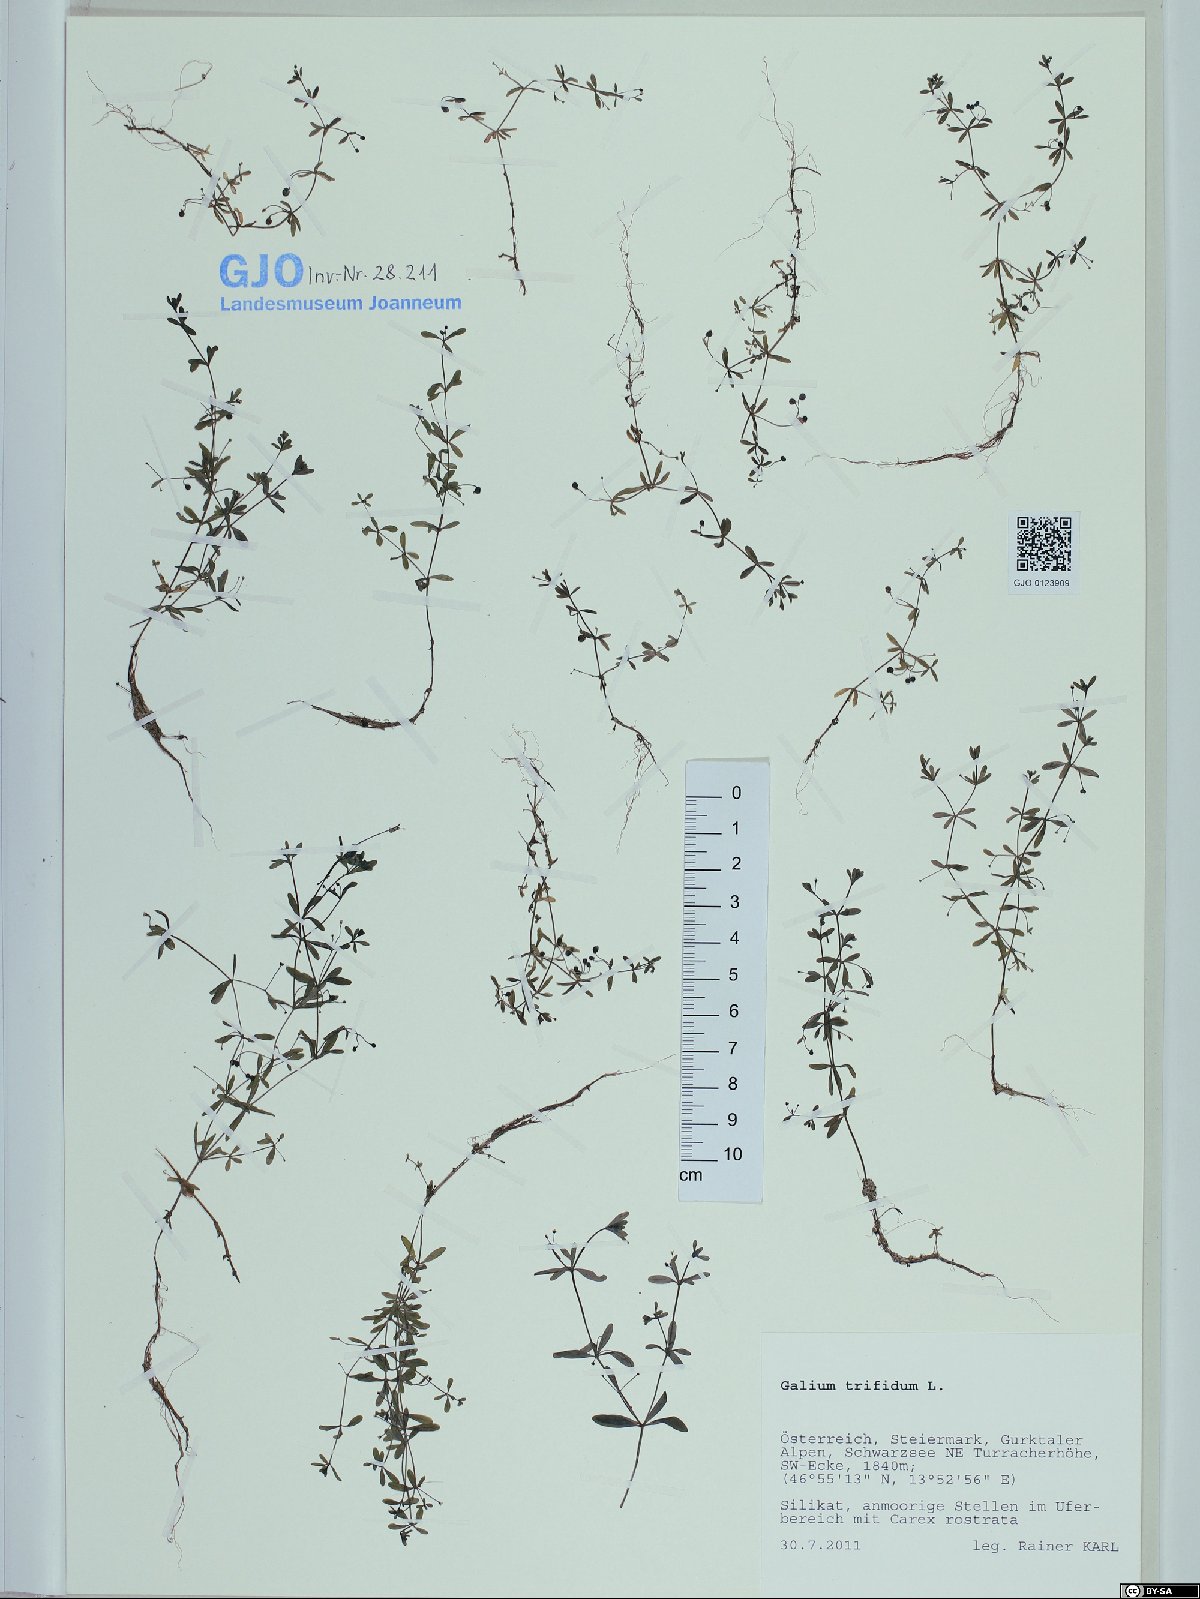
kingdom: Plantae
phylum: Tracheophyta
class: Magnoliopsida
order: Gentianales
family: Rubiaceae
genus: Galium
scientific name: Galium trifidum
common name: Small bedstraw
